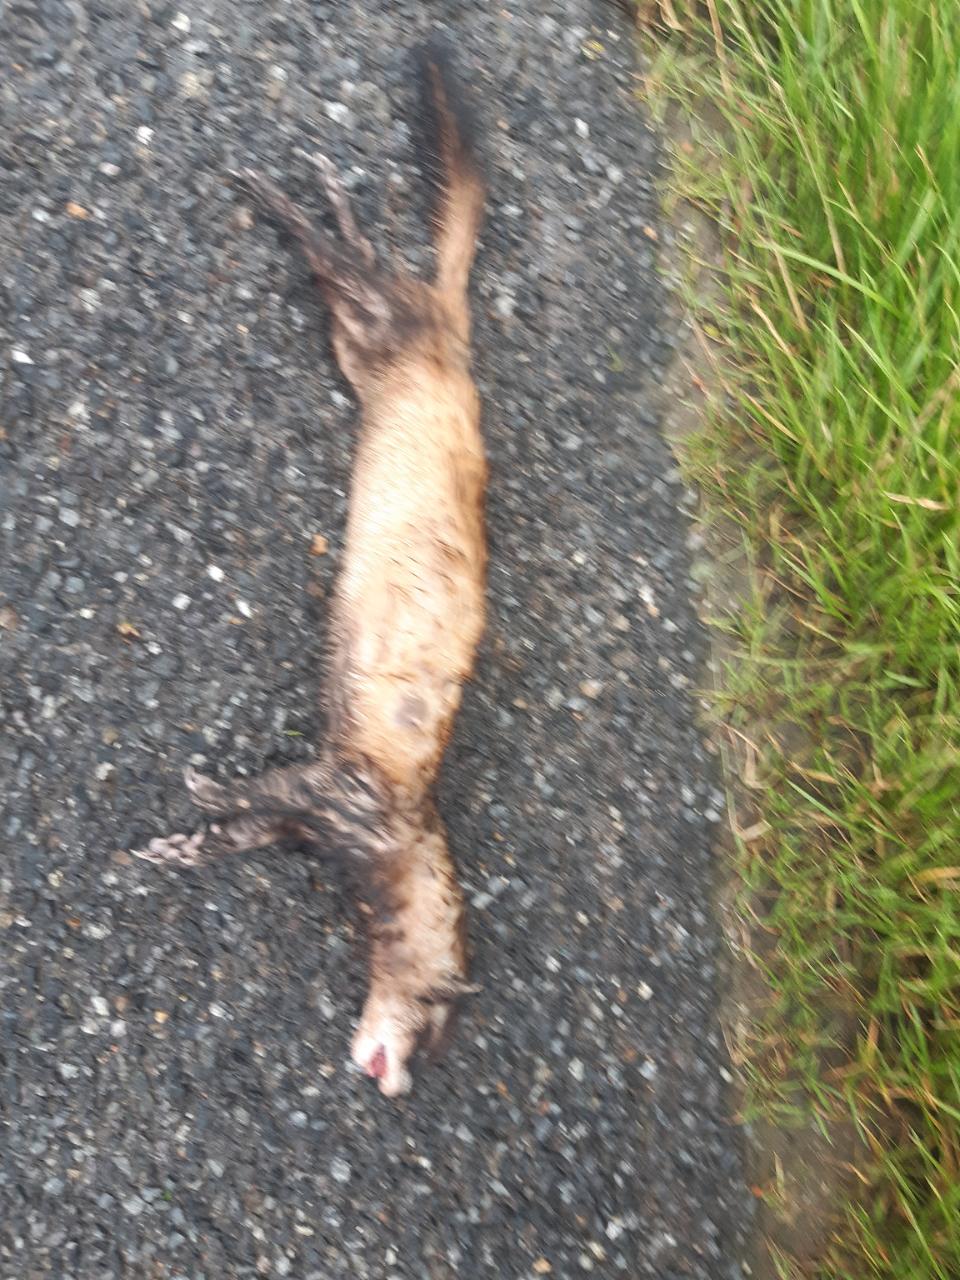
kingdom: Animalia
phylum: Chordata
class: Mammalia
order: Carnivora
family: Mustelidae
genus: Mustela
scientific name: Mustela putorius
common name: European polecat
